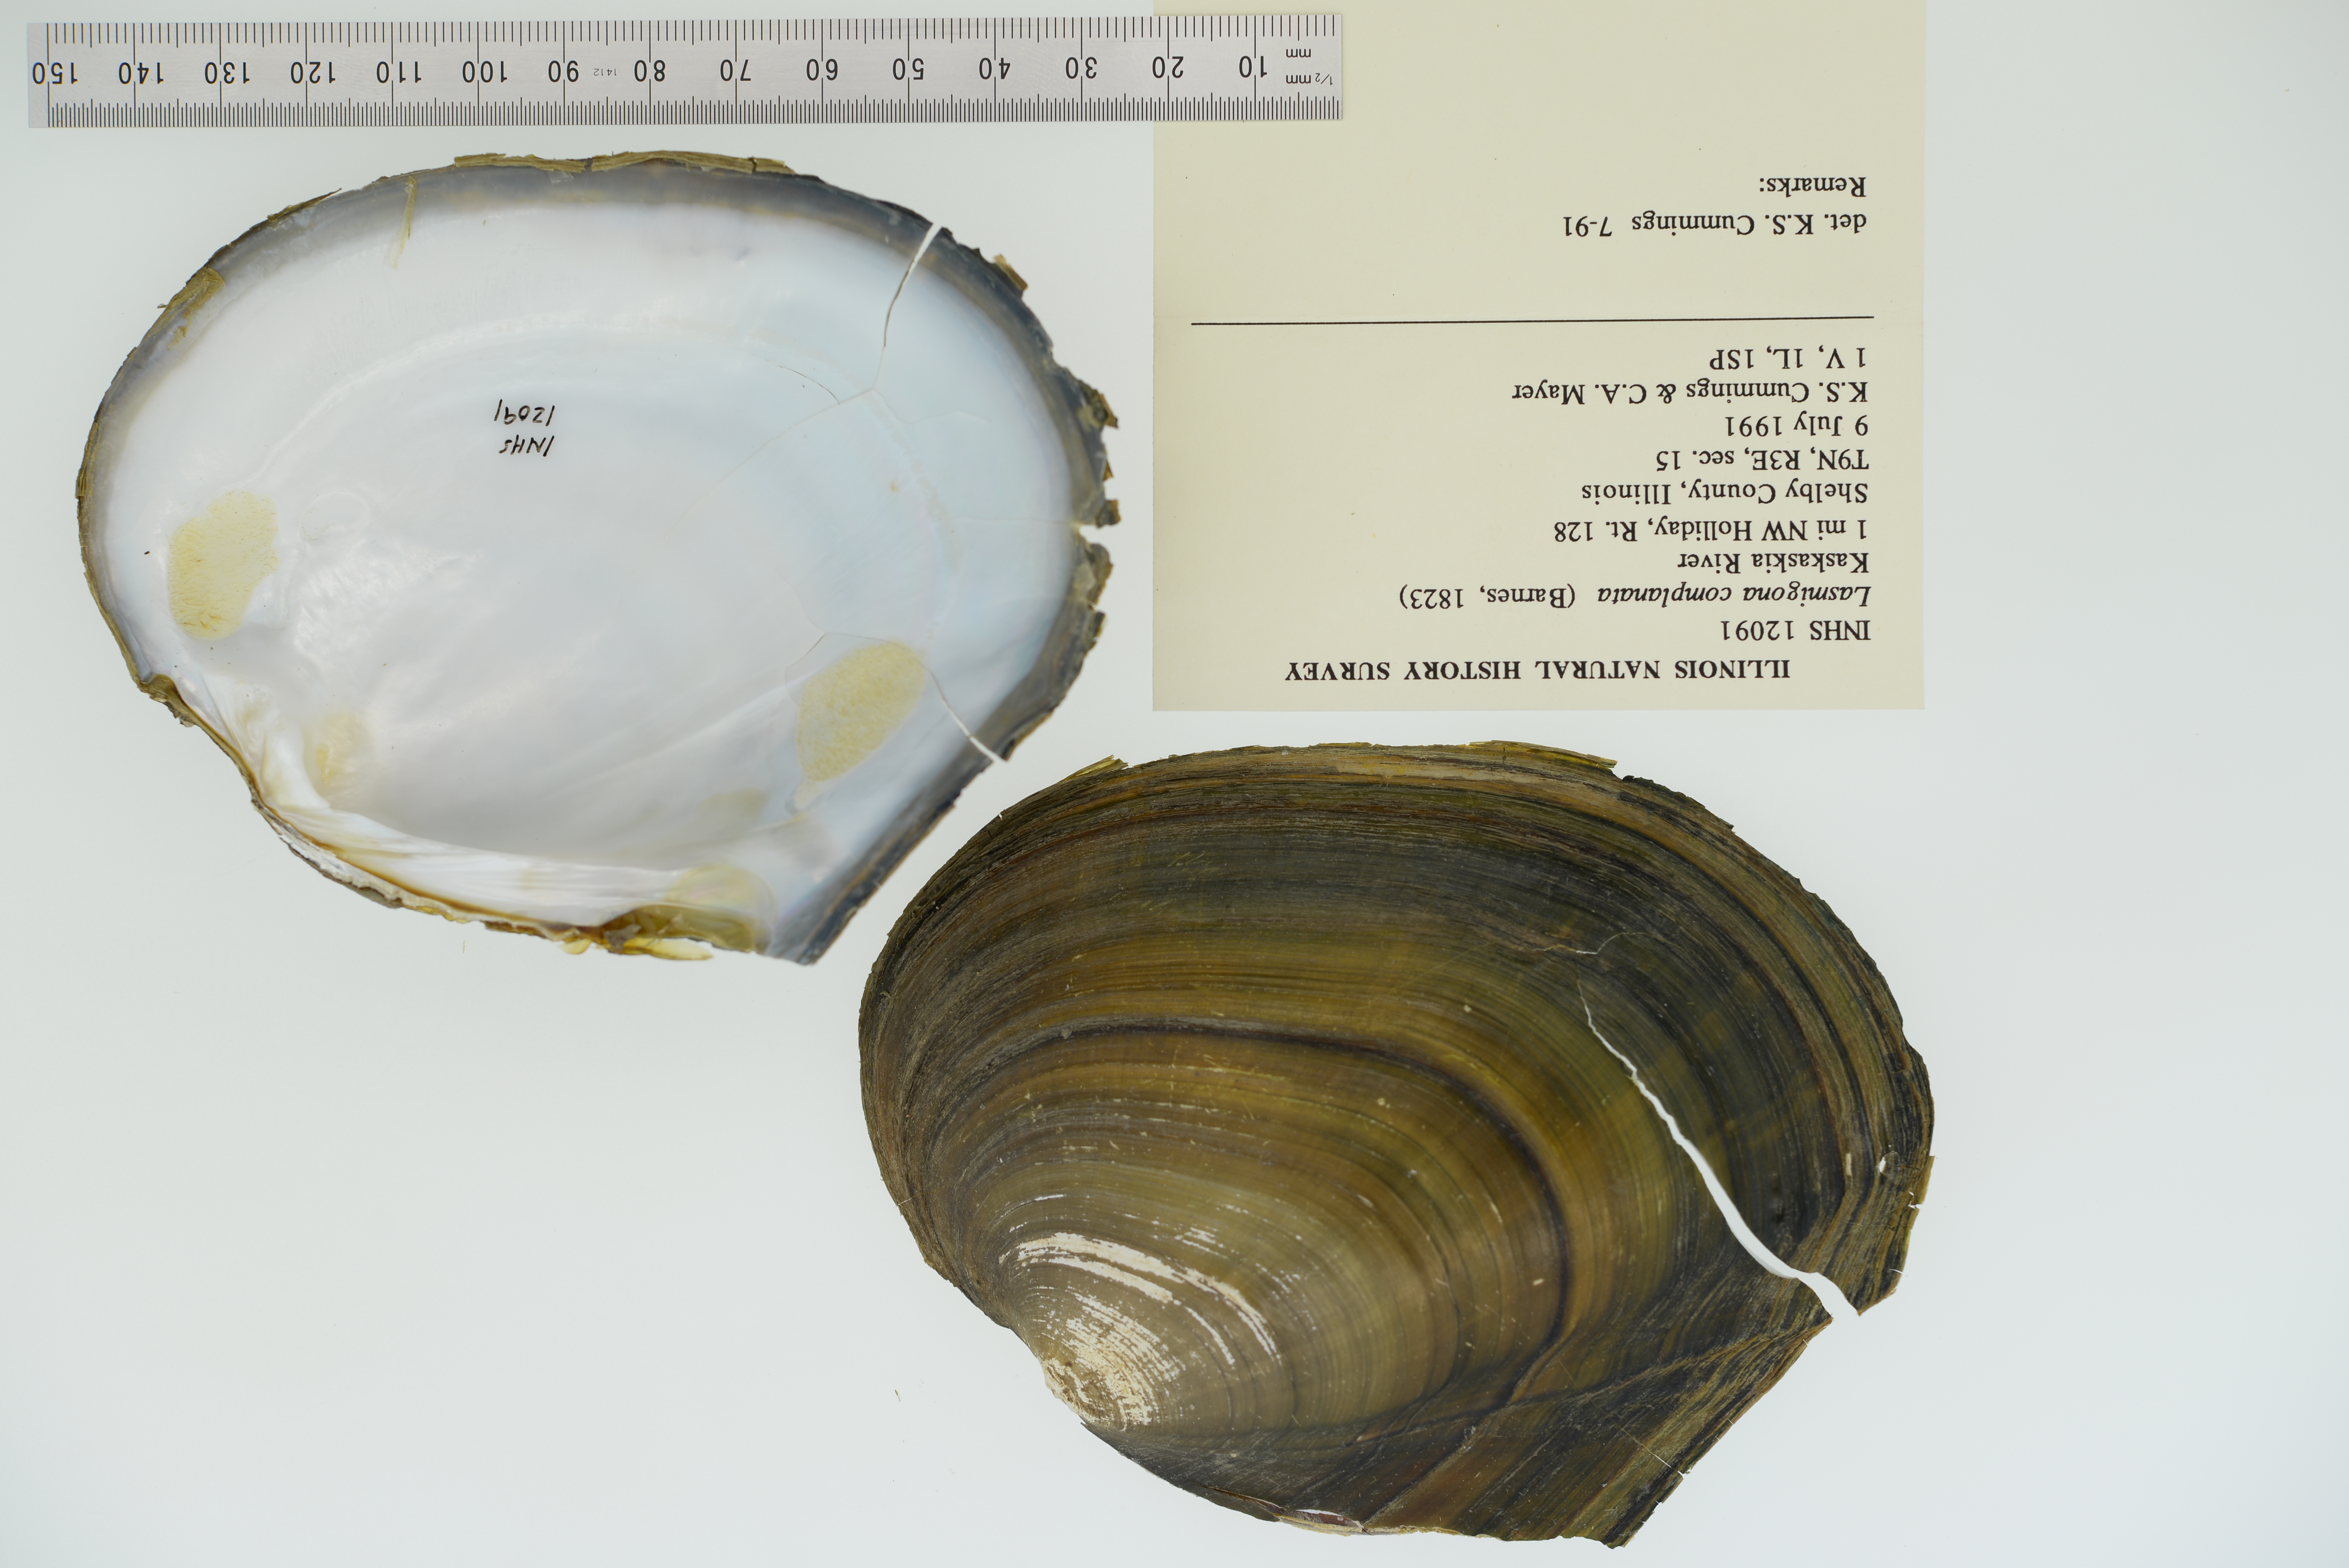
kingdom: Animalia
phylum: Mollusca
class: Bivalvia
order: Unionida
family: Unionidae
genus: Lasmigona
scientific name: Lasmigona complanata
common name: White heelsplitter
